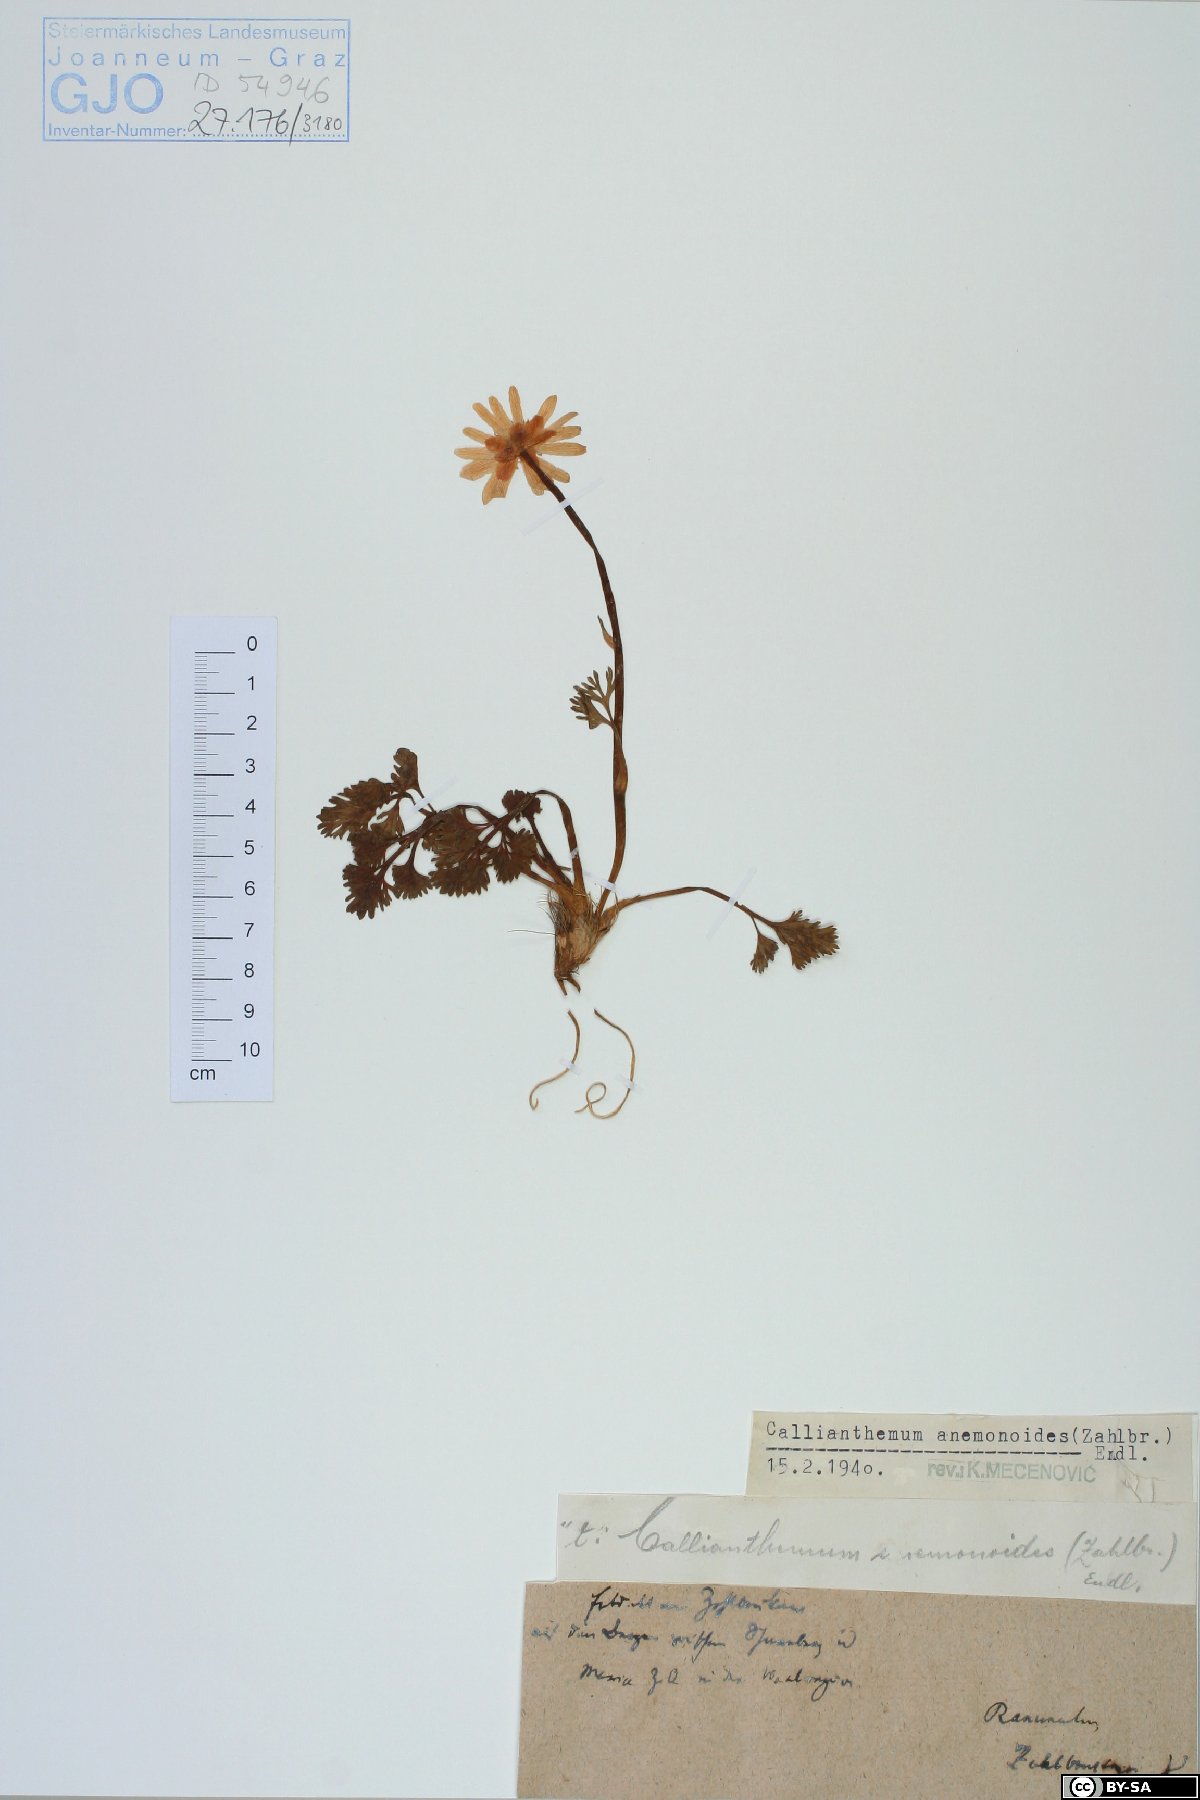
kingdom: Plantae
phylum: Tracheophyta
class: Magnoliopsida
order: Ranunculales
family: Ranunculaceae
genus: Callianthemum
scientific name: Callianthemum anemonoides
